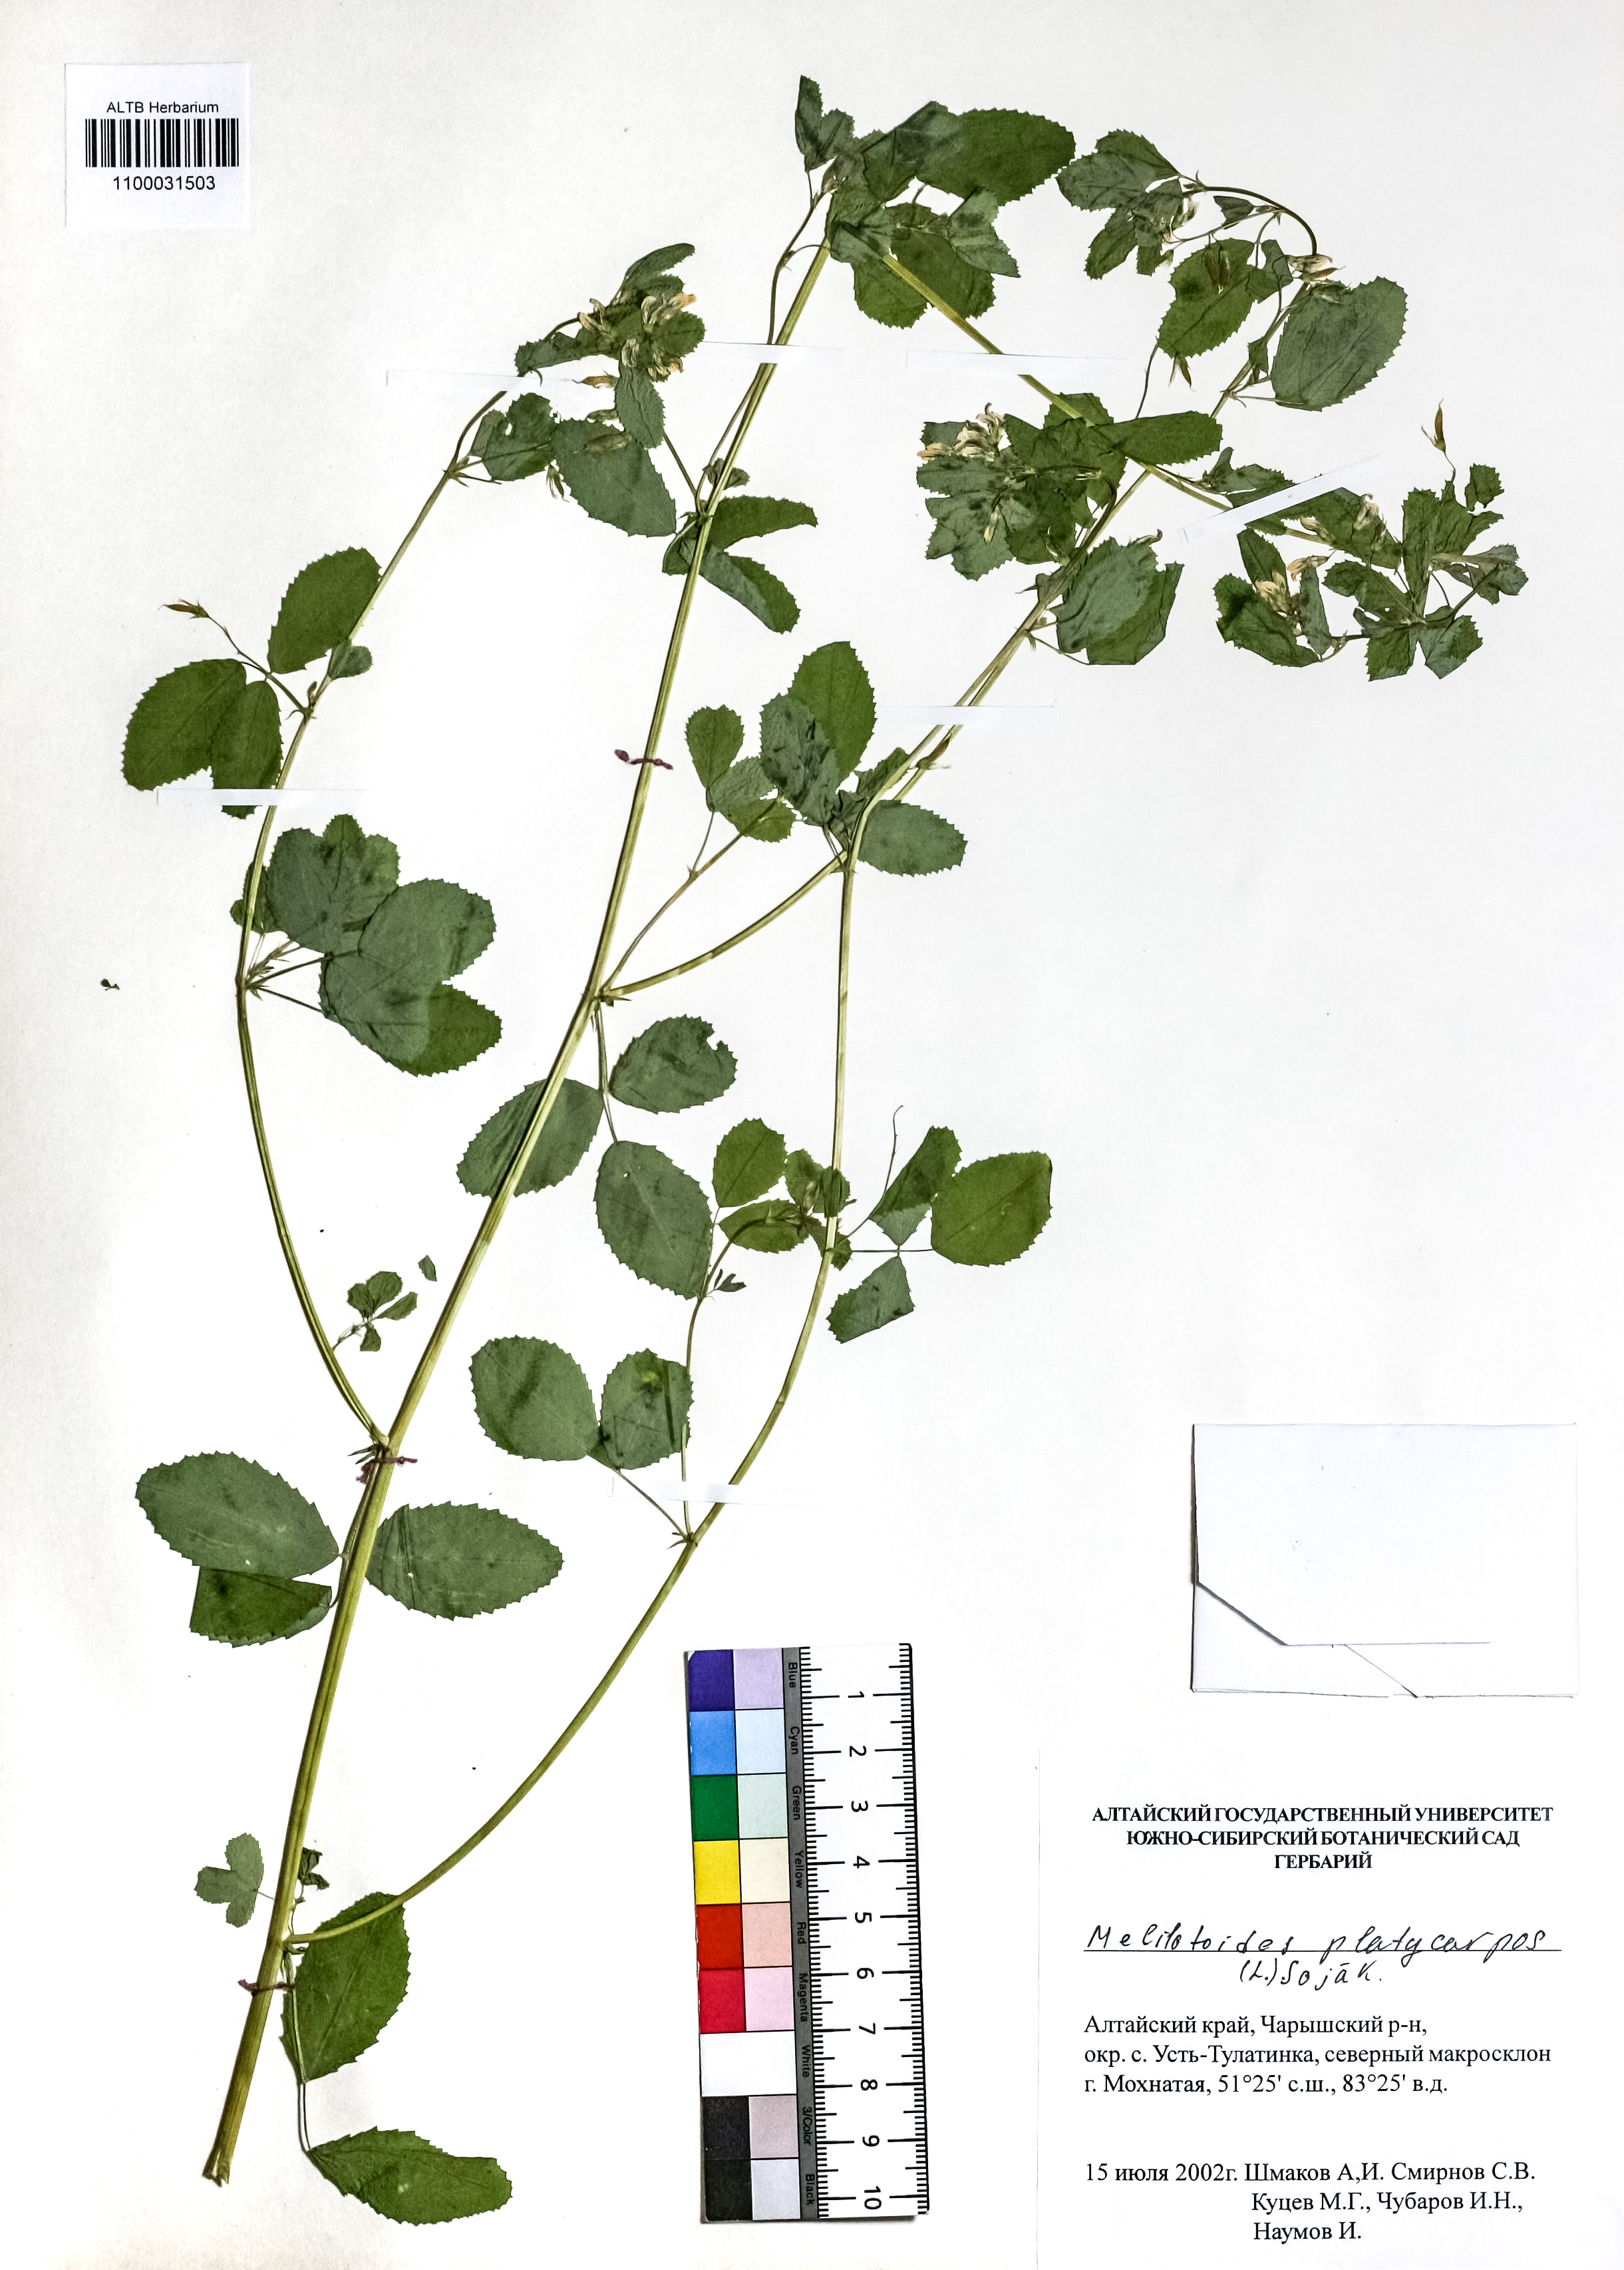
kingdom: Plantae
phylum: Tracheophyta
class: Magnoliopsida
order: Fabales
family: Fabaceae
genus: Medicago
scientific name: Medicago platycarpos
